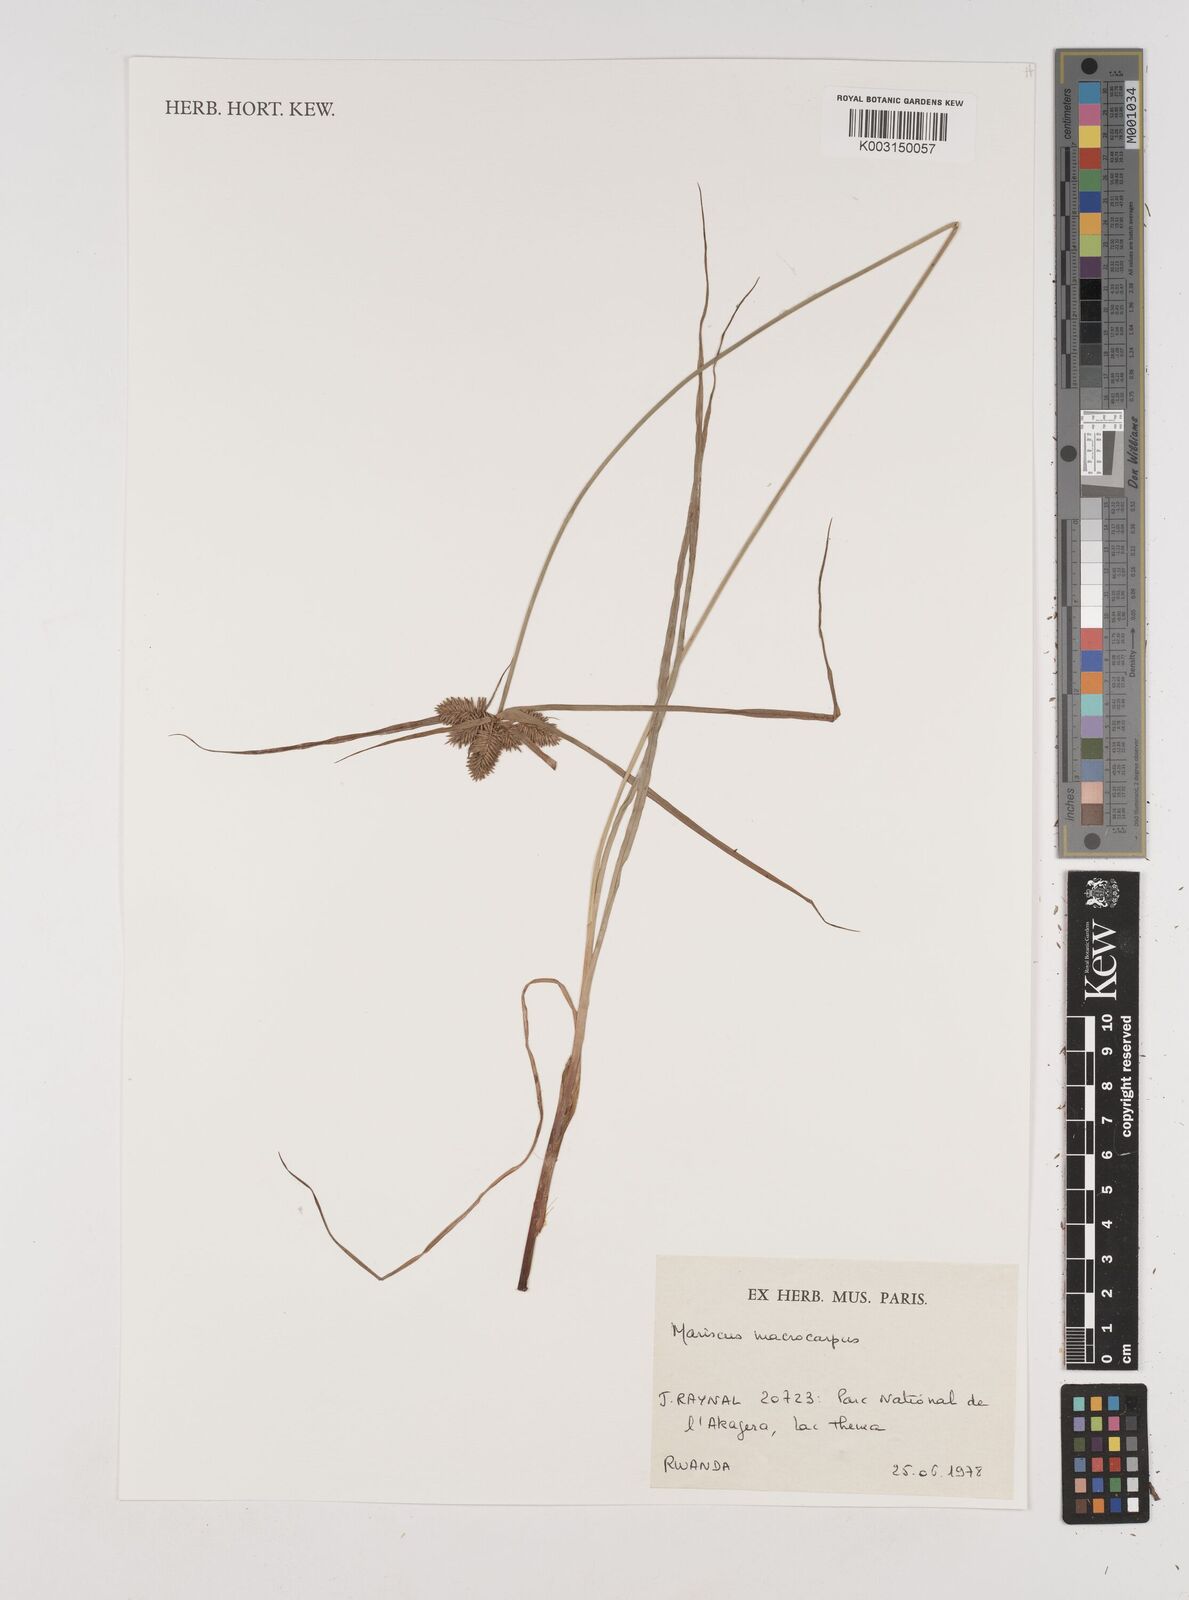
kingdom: Plantae
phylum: Tracheophyta
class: Liliopsida
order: Poales
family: Cyperaceae
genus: Cyperus
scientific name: Cyperus macrocarpus
